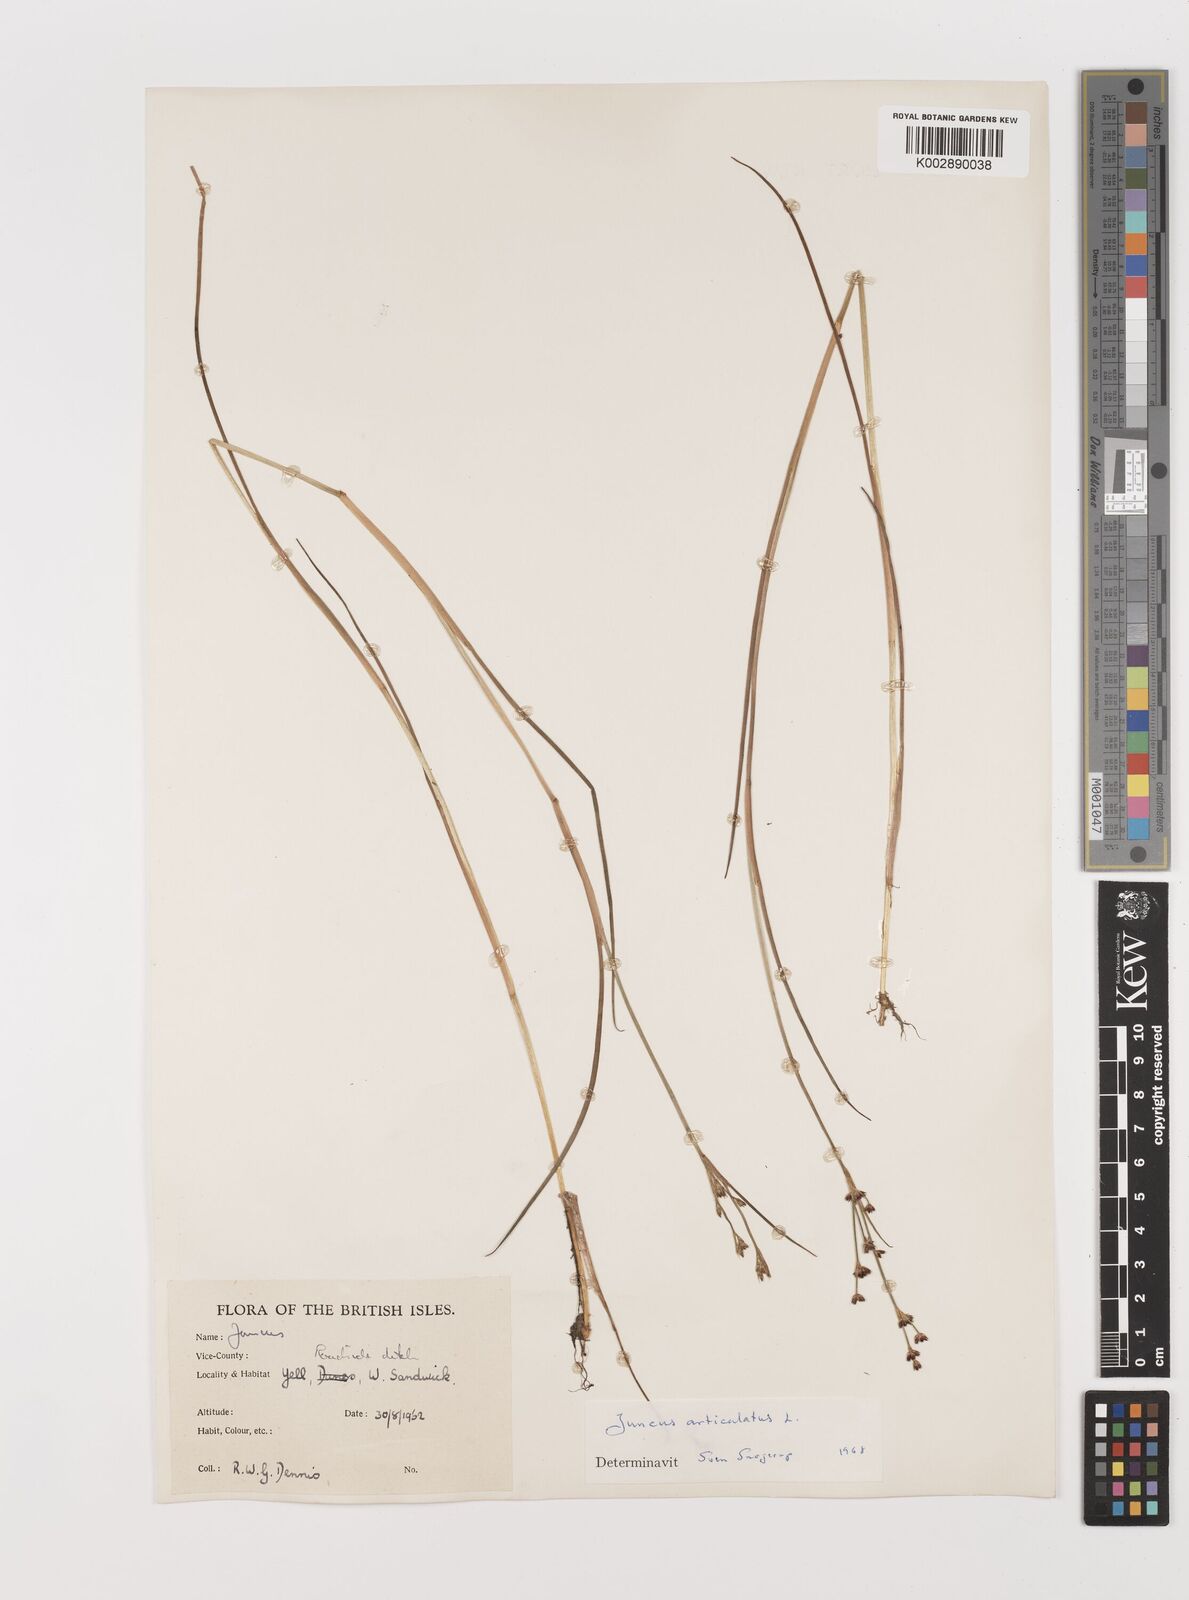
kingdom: Plantae
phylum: Tracheophyta
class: Liliopsida
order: Poales
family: Juncaceae
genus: Juncus
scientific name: Juncus articulatus
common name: Jointed rush
